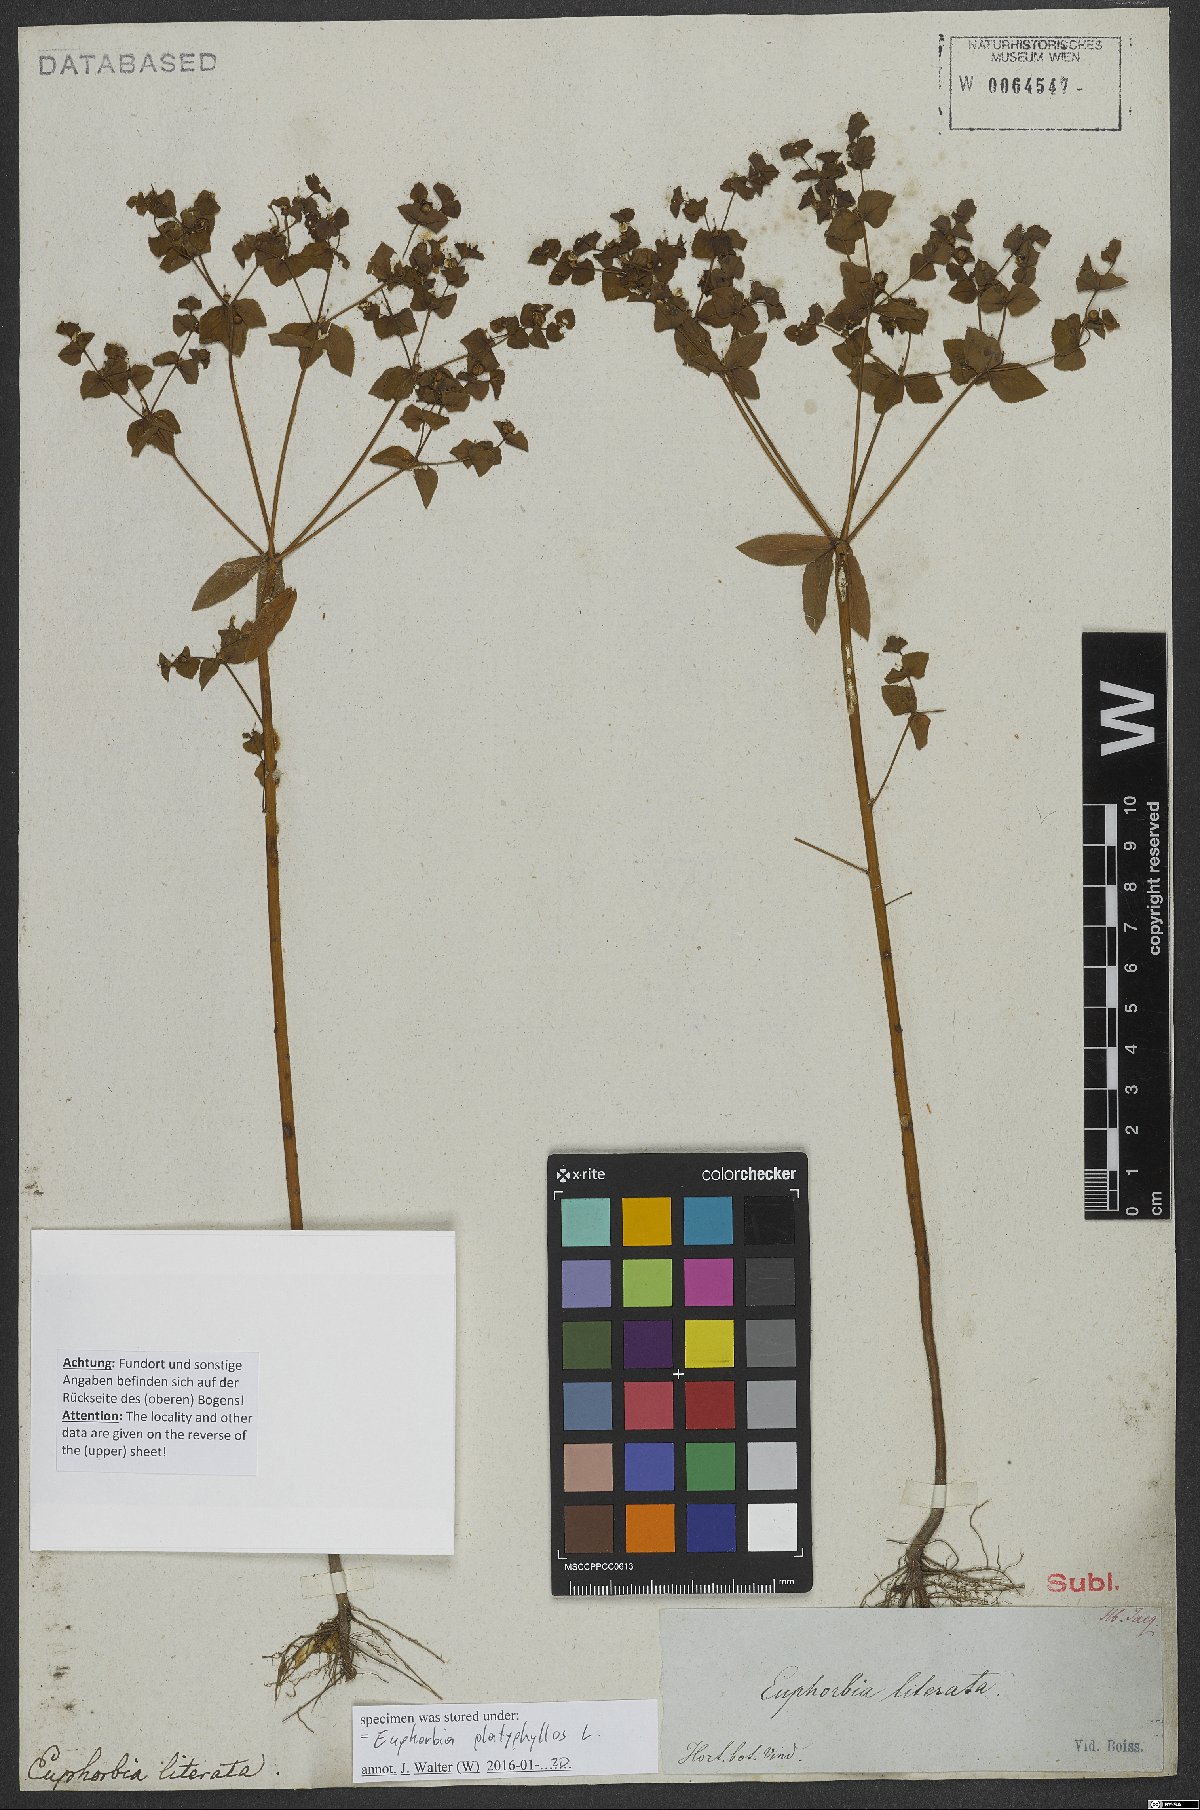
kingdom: Plantae
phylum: Tracheophyta
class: Magnoliopsida
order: Malpighiales
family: Euphorbiaceae
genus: Euphorbia
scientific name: Euphorbia platyphyllos
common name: Broad-leaved spurge
